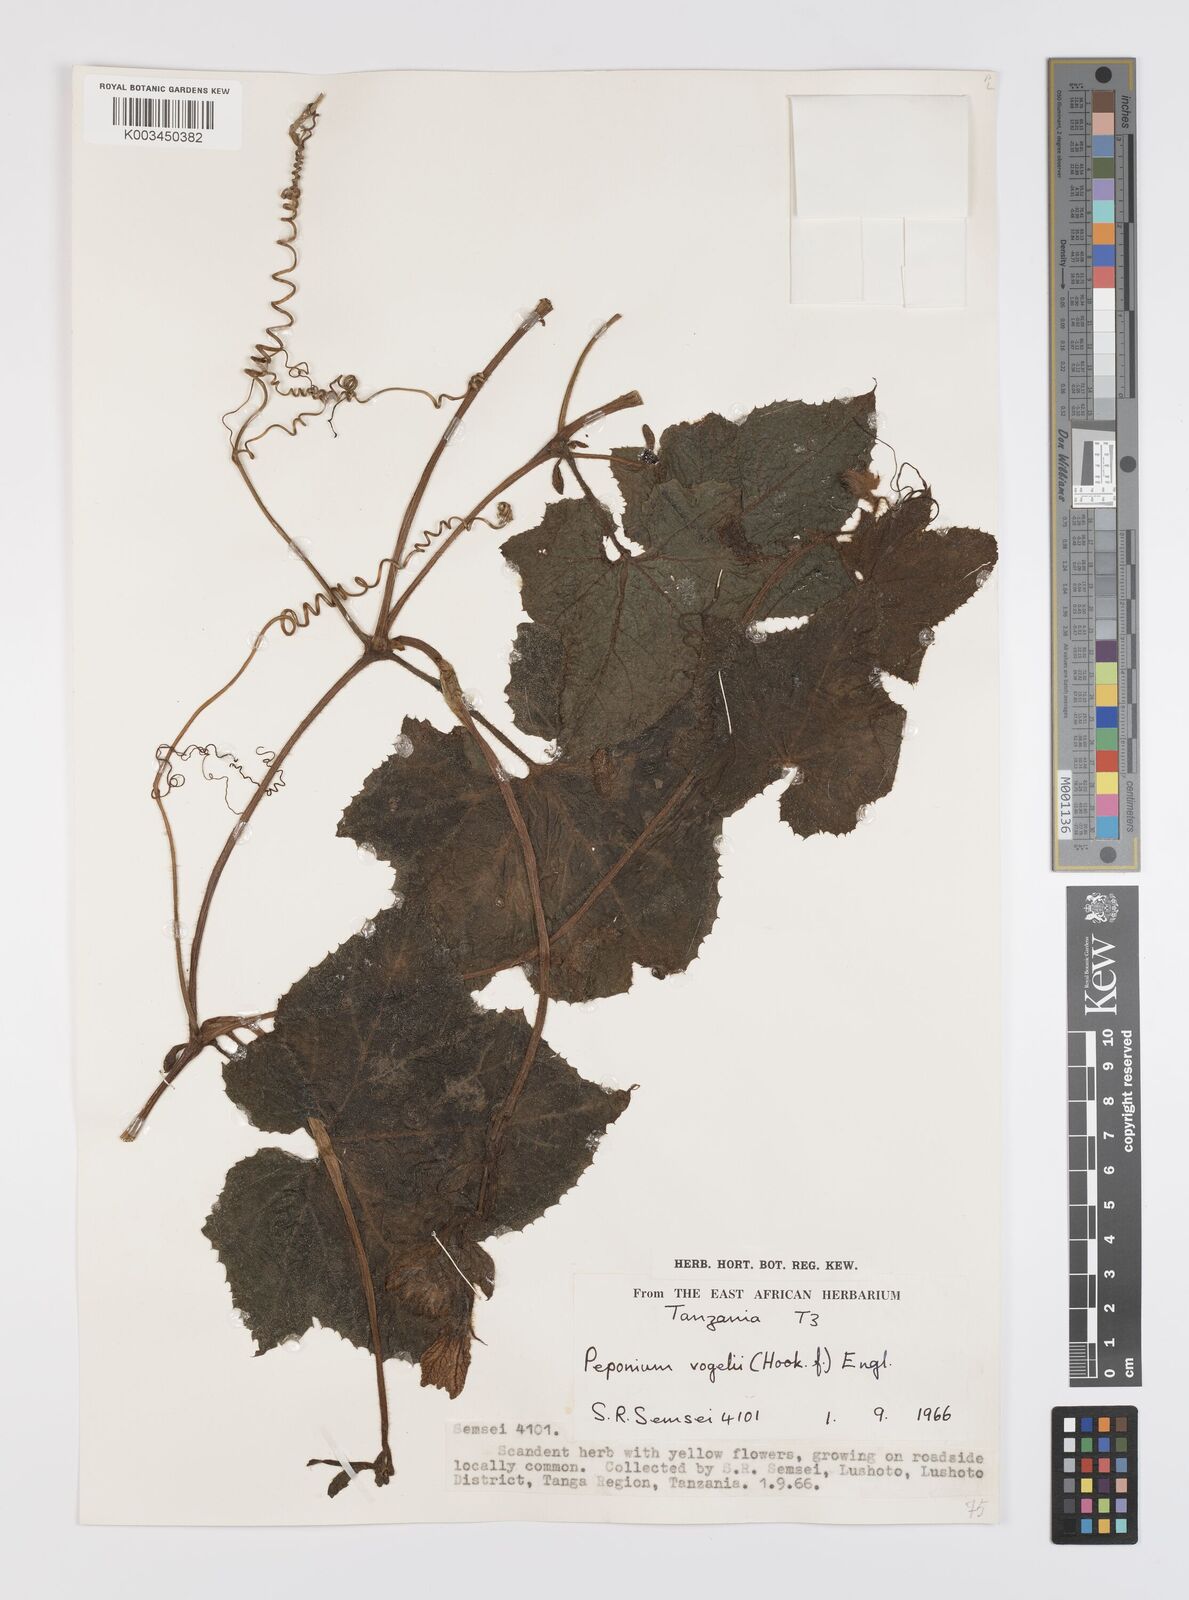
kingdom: Plantae
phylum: Tracheophyta
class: Magnoliopsida
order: Cucurbitales
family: Cucurbitaceae
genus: Peponium
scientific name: Peponium vogelii
